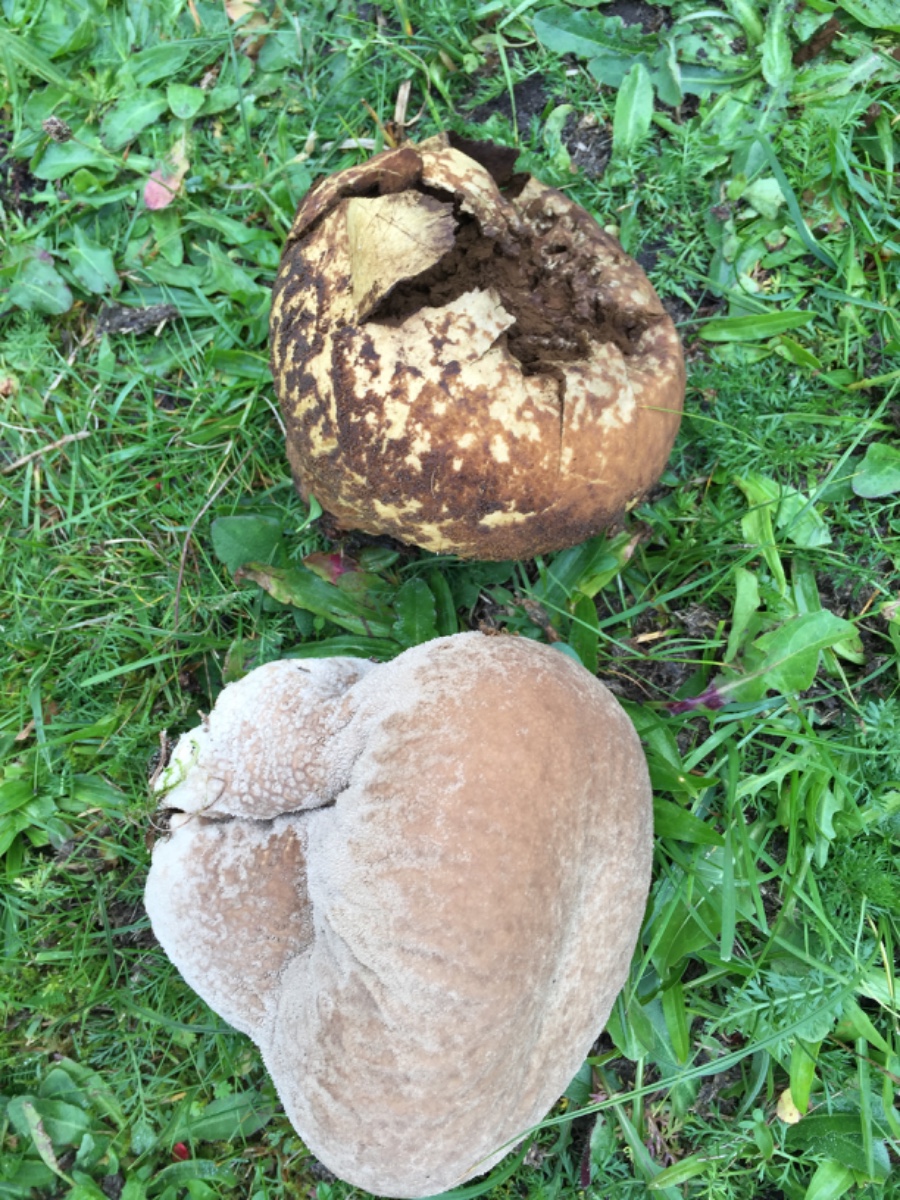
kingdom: Fungi
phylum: Basidiomycota
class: Agaricomycetes
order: Agaricales
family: Lycoperdaceae
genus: Bovistella
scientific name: Bovistella utriformis
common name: skællet støvbold
